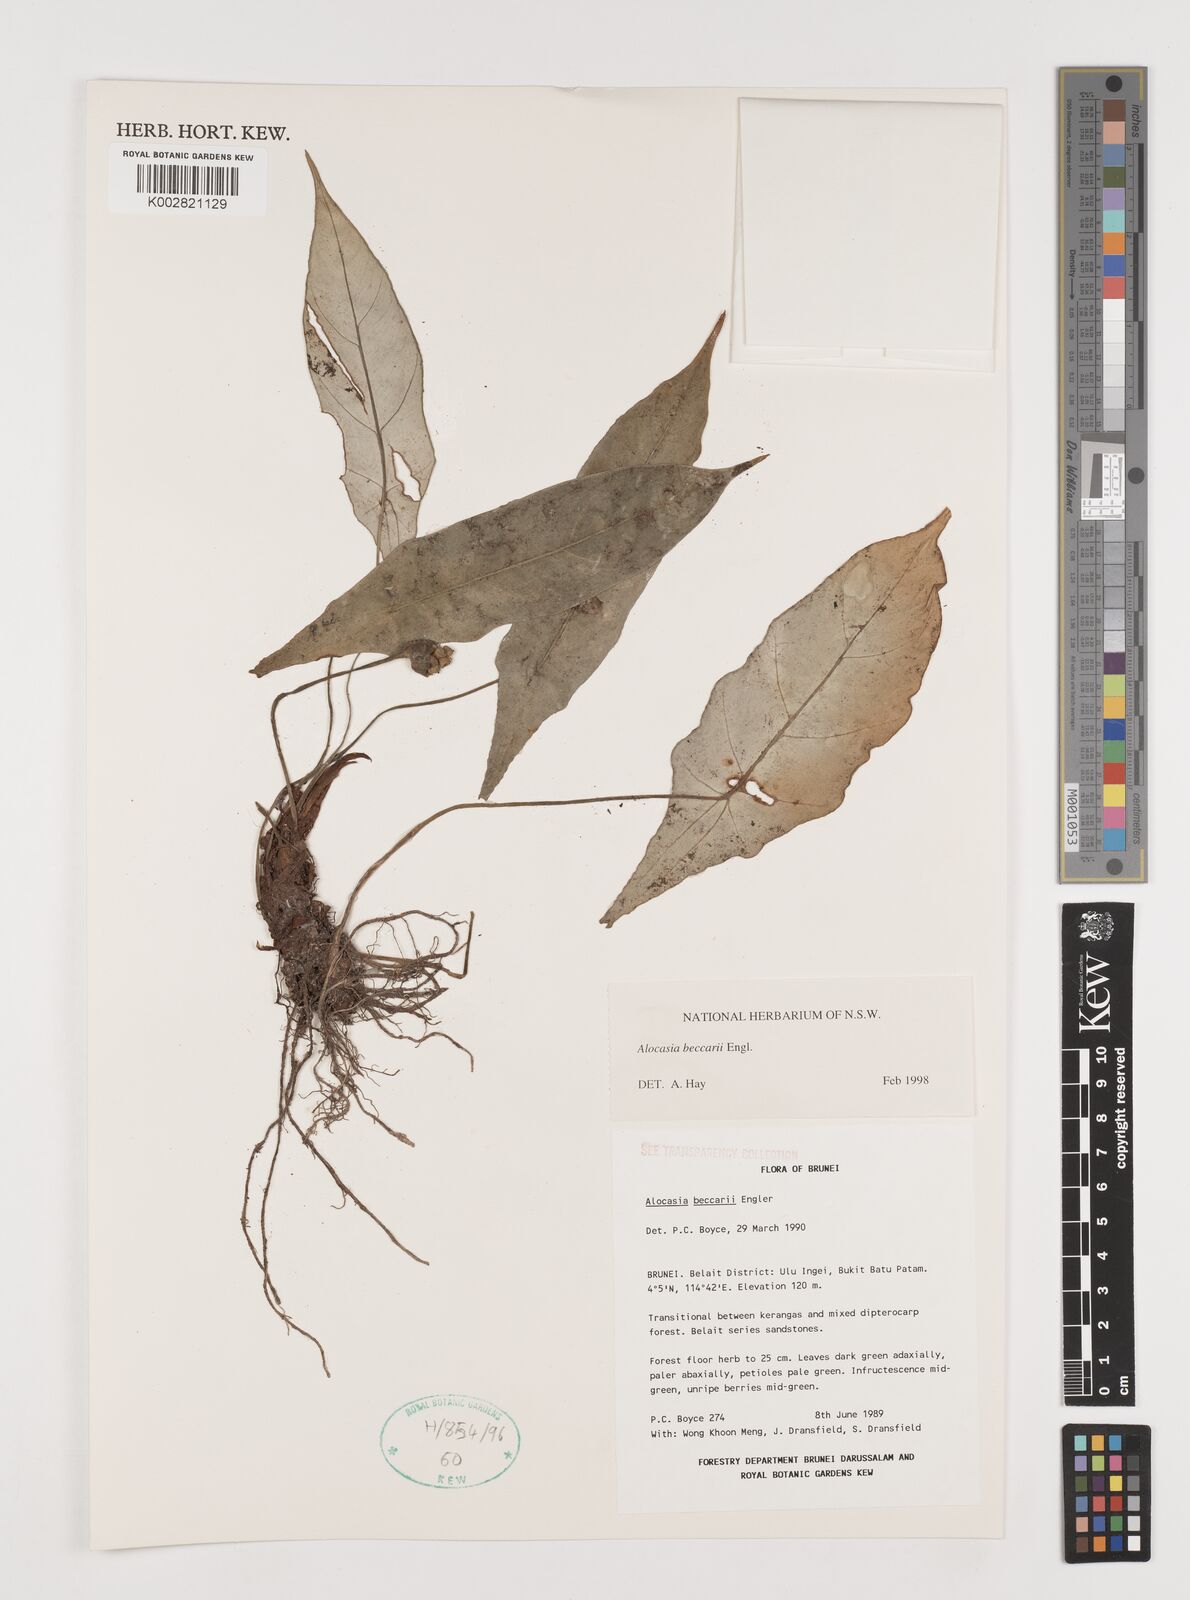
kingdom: Plantae
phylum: Tracheophyta
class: Liliopsida
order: Alismatales
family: Araceae
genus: Alocasia
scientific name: Alocasia beccarii
